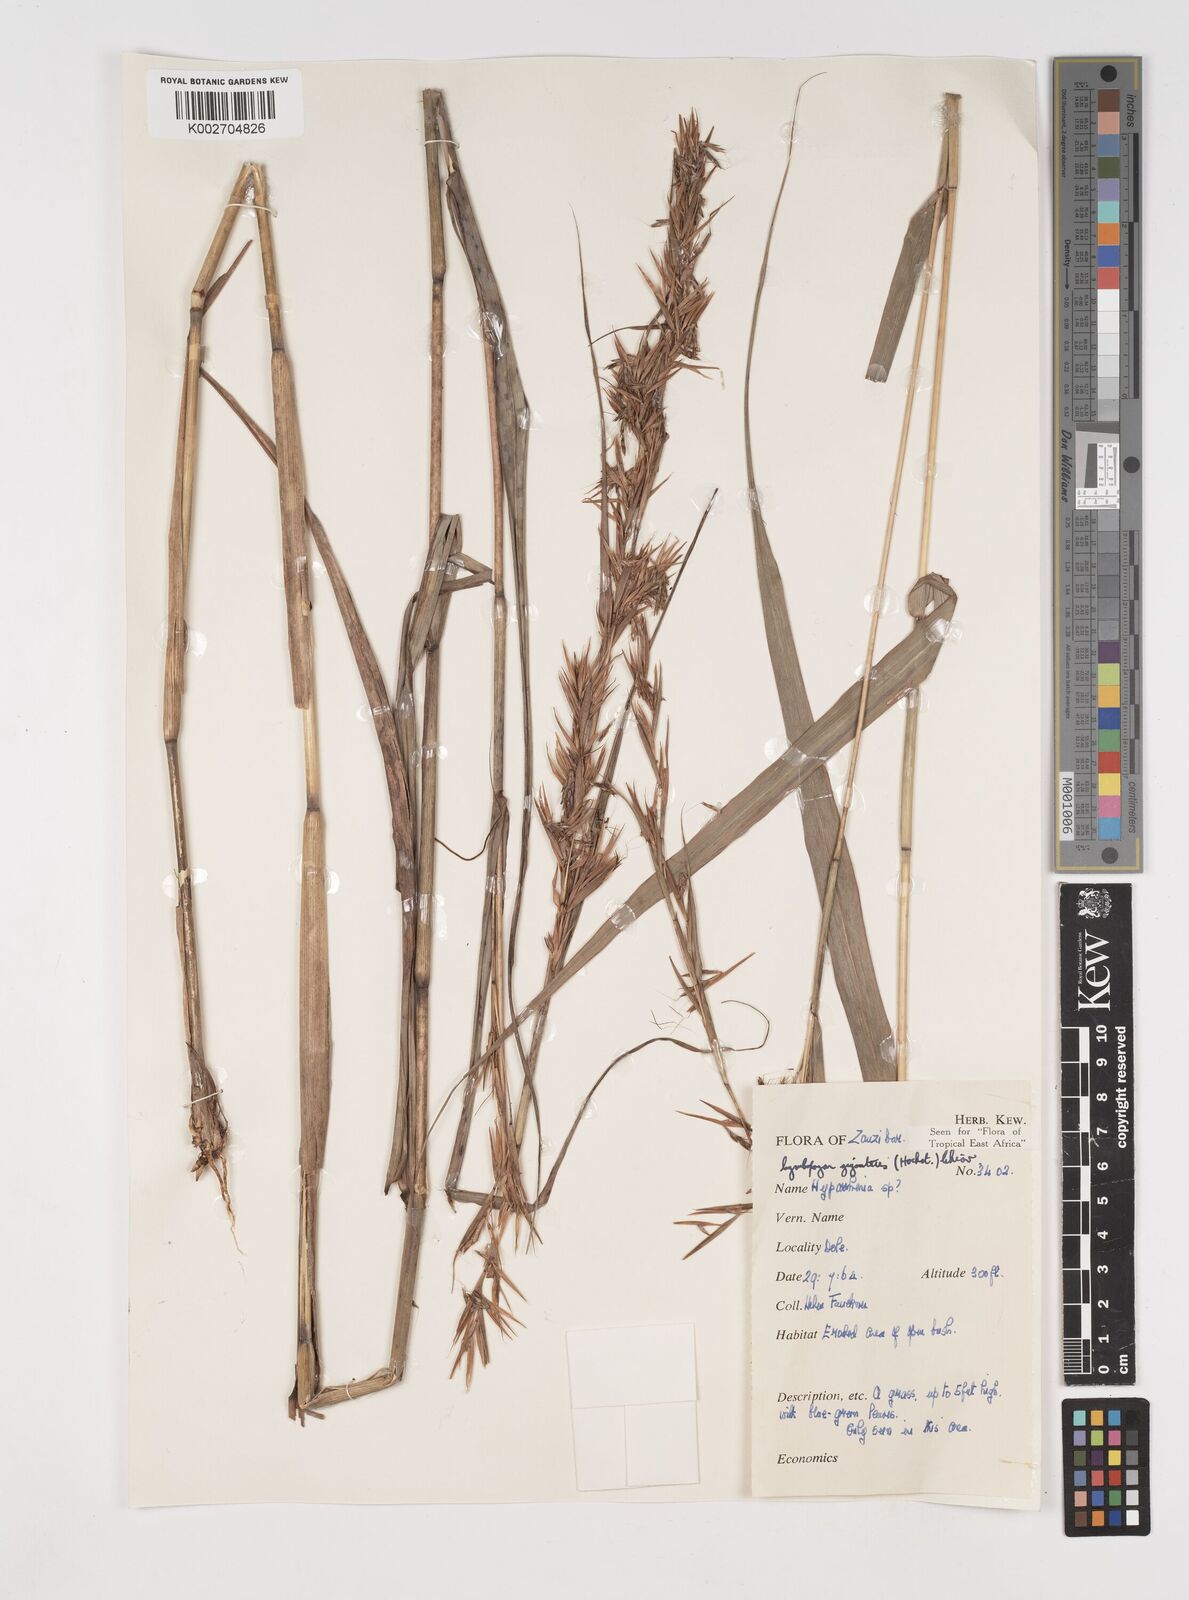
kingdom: Plantae
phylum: Tracheophyta
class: Liliopsida
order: Poales
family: Poaceae
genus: Cymbopogon
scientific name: Cymbopogon giganteus
